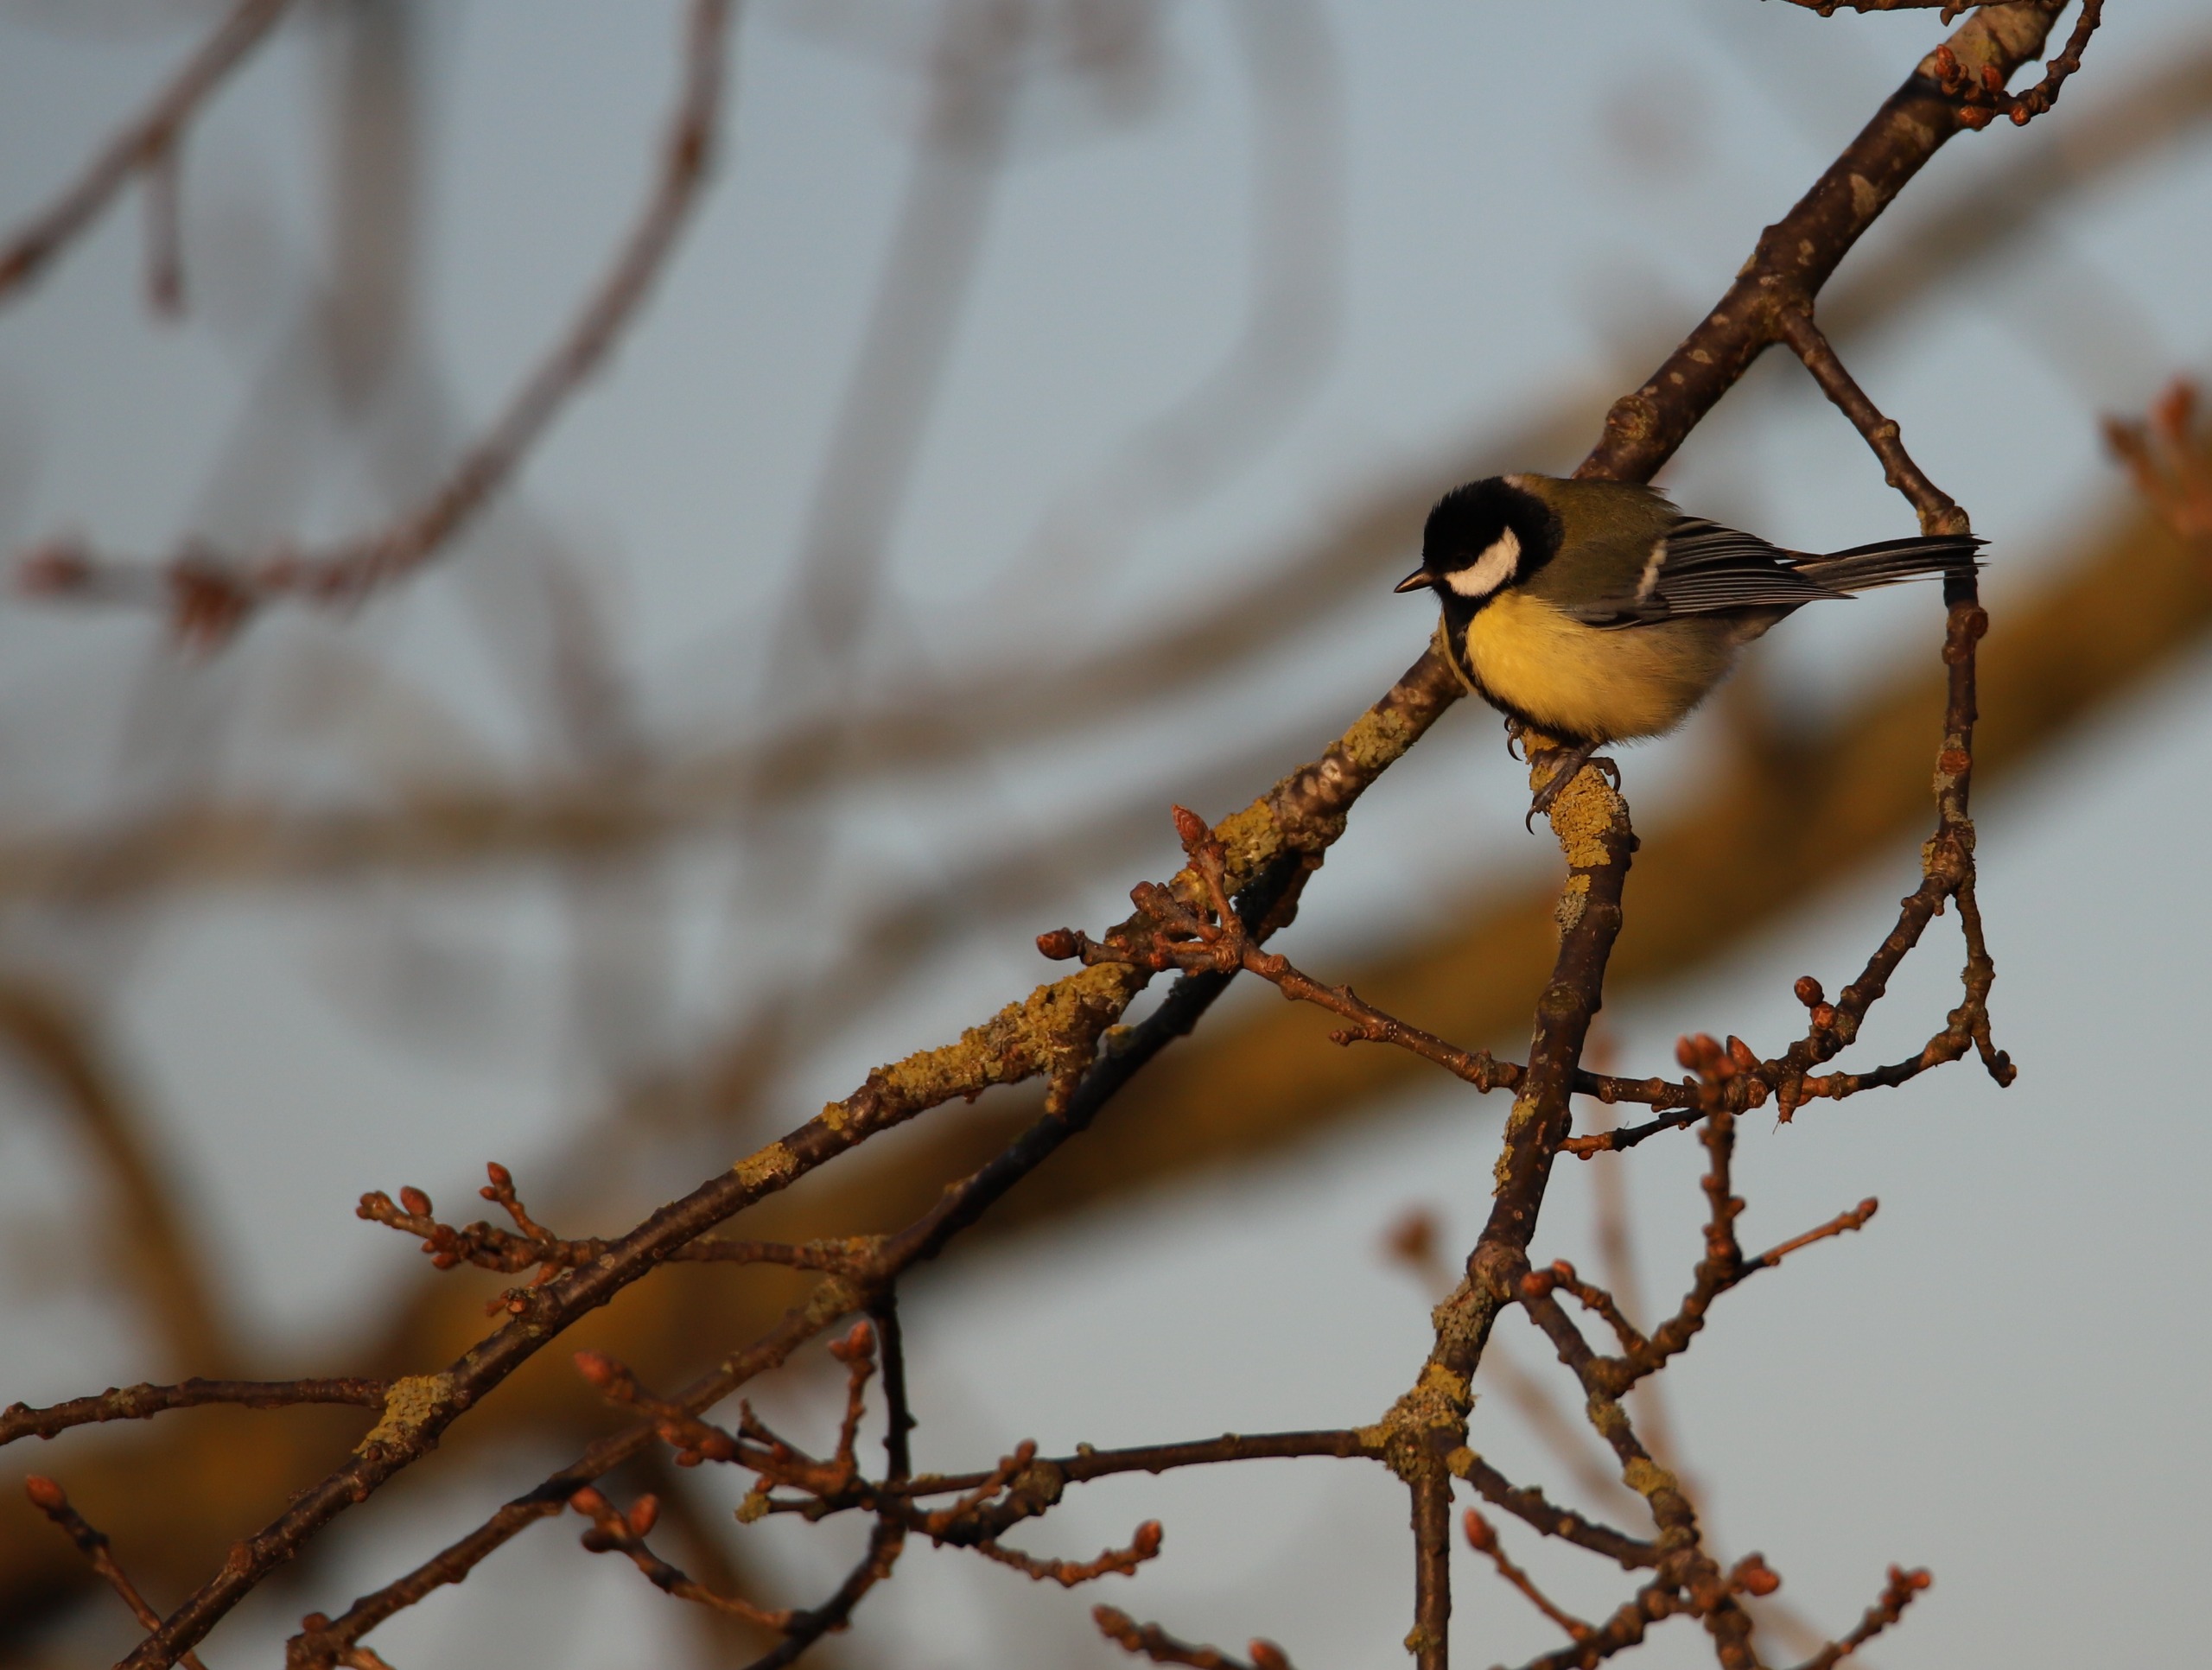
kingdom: Animalia
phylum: Chordata
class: Aves
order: Passeriformes
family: Paridae
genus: Parus
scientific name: Parus major
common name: Musvit
